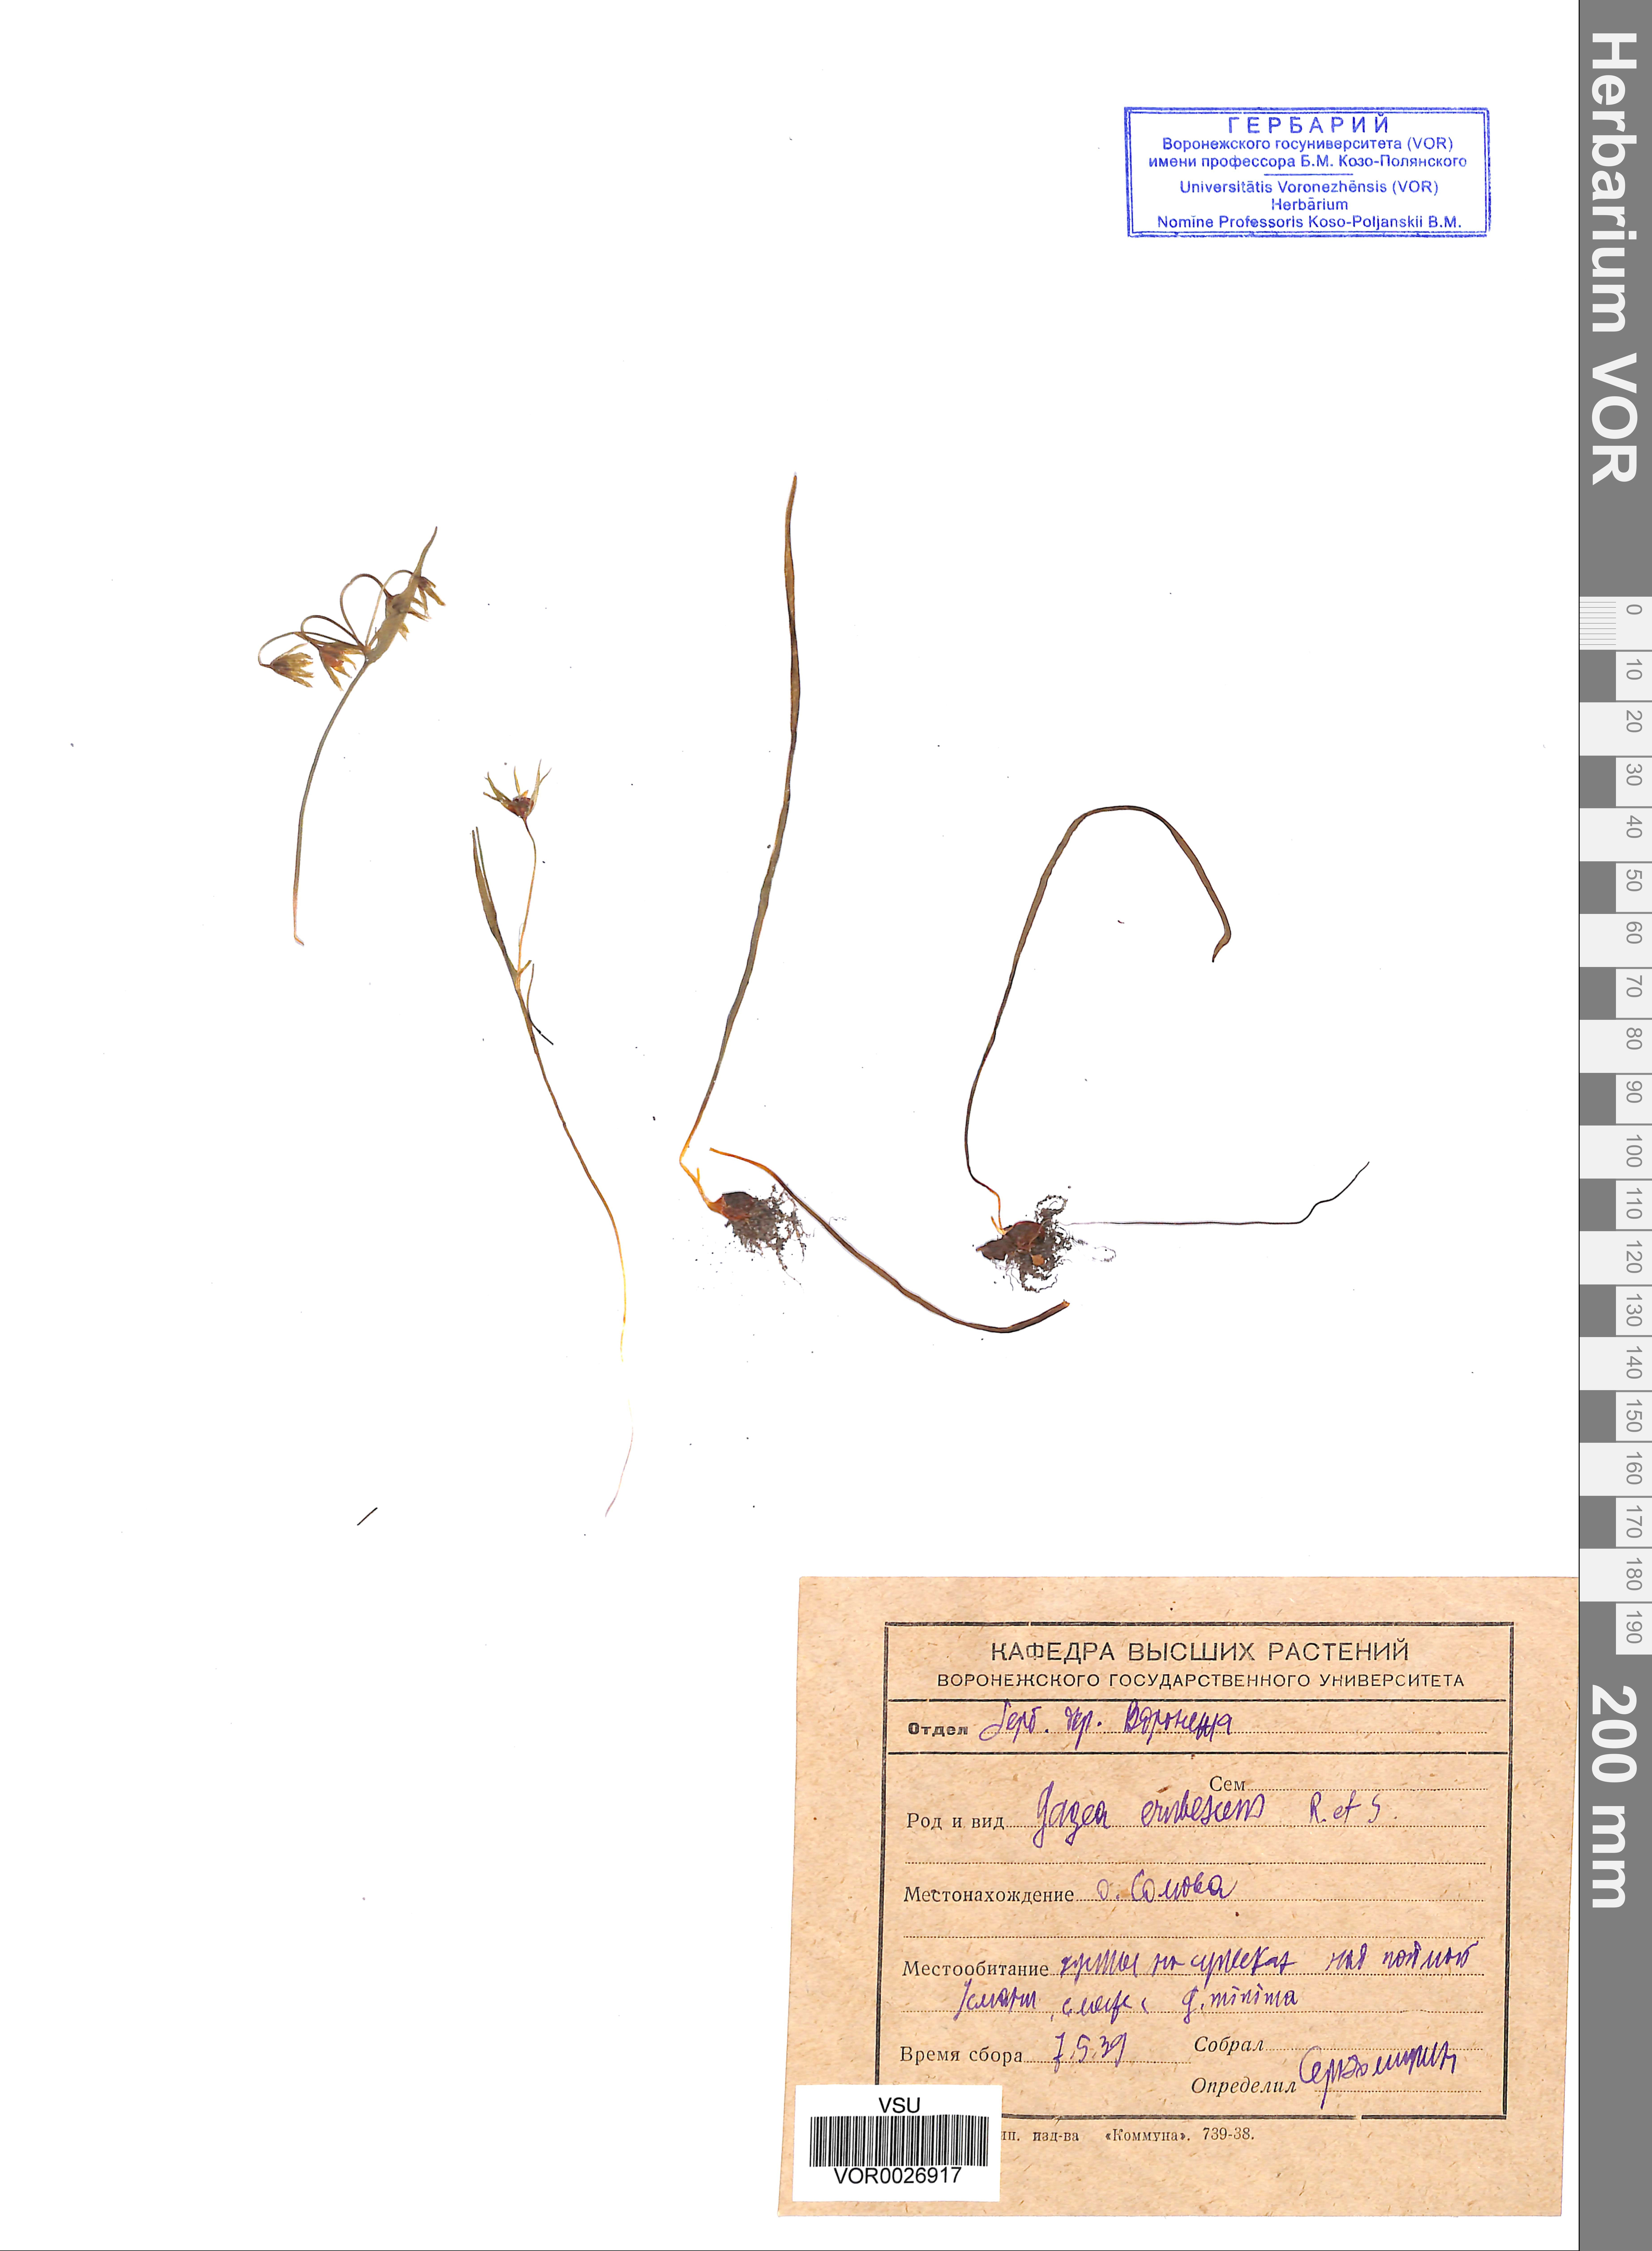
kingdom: Plantae
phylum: Tracheophyta
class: Liliopsida
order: Liliales
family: Liliaceae
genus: Gagea
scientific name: Gagea fragifera
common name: Lily
